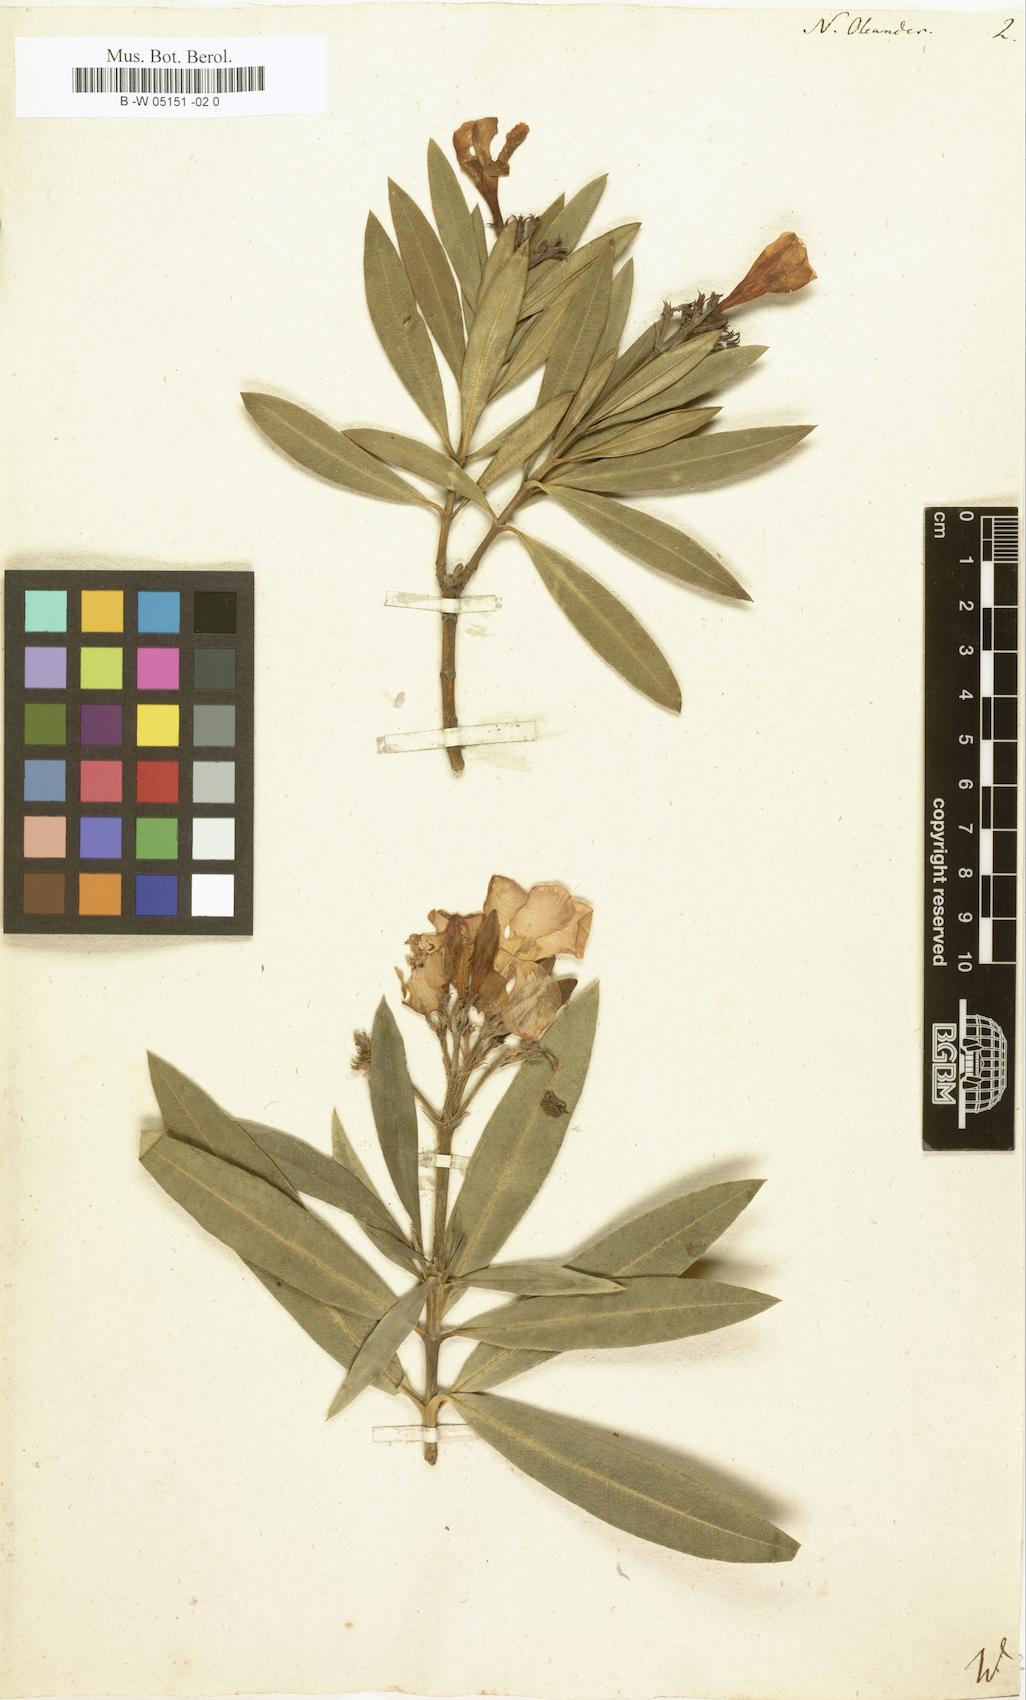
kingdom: Plantae
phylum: Tracheophyta
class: Magnoliopsida
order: Gentianales
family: Apocynaceae
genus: Nerium
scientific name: Nerium oleander
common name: Oleander
